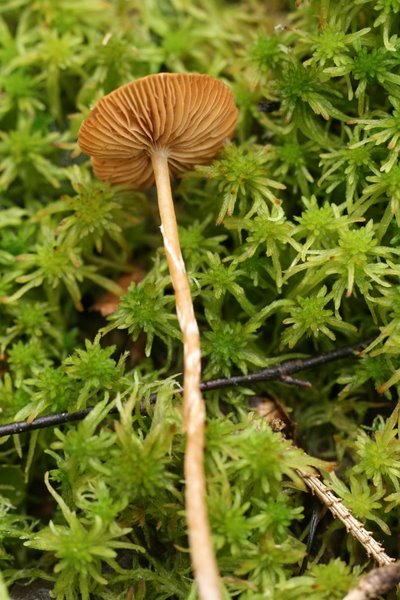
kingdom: Fungi
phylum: Basidiomycota
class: Agaricomycetes
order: Agaricales
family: Hymenogastraceae
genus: Galerina
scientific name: Galerina paludosa
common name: mose-hjelmhat
